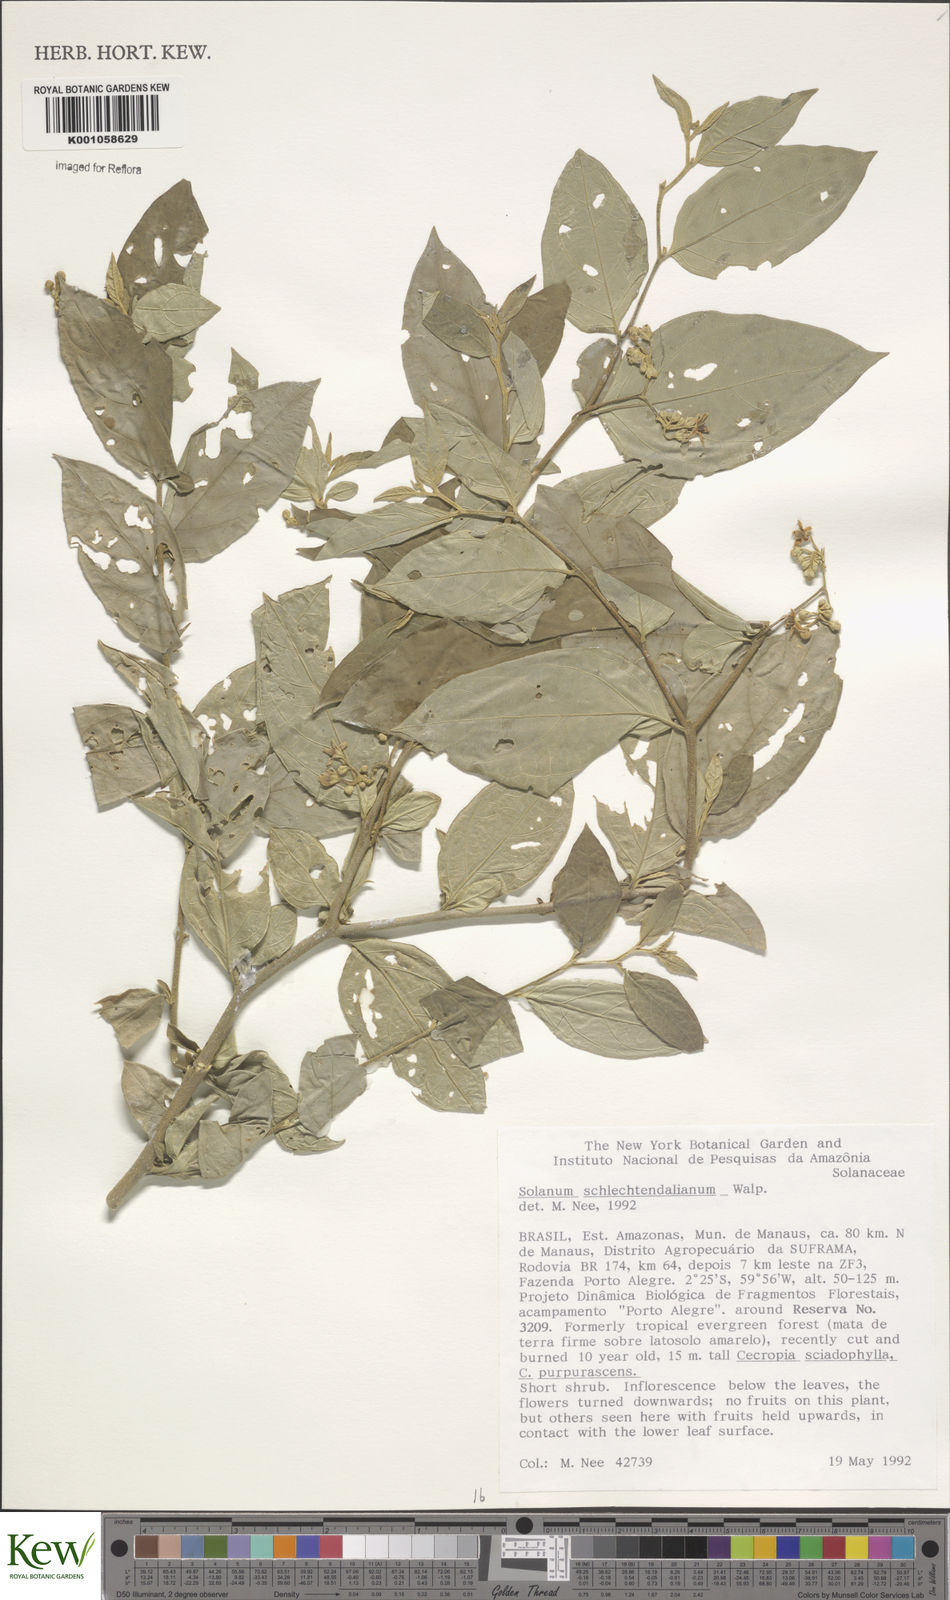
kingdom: Plantae
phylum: Tracheophyta
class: Magnoliopsida
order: Solanales
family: Solanaceae
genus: Solanum
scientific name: Solanum schlechtendalianum
